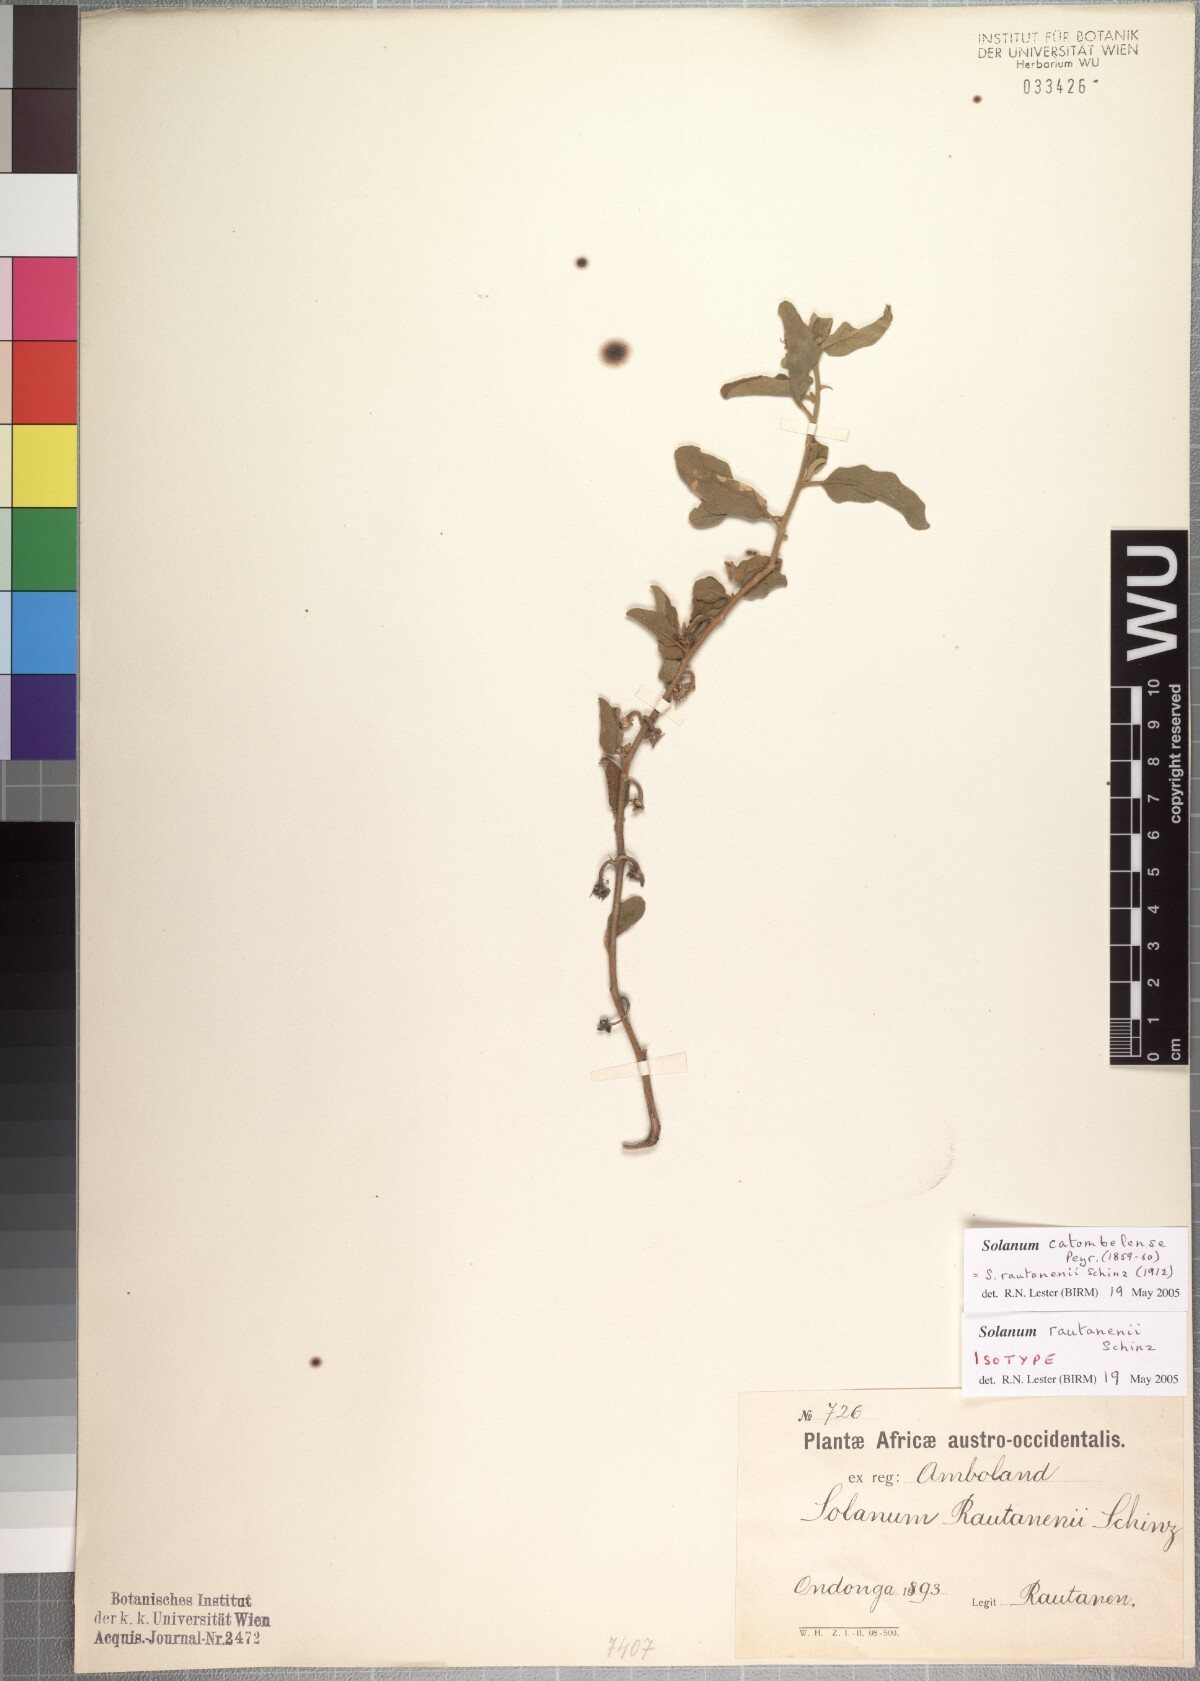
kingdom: Plantae
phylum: Tracheophyta
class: Magnoliopsida
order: Solanales
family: Solanaceae
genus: Solanum
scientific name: Solanum catombelense
